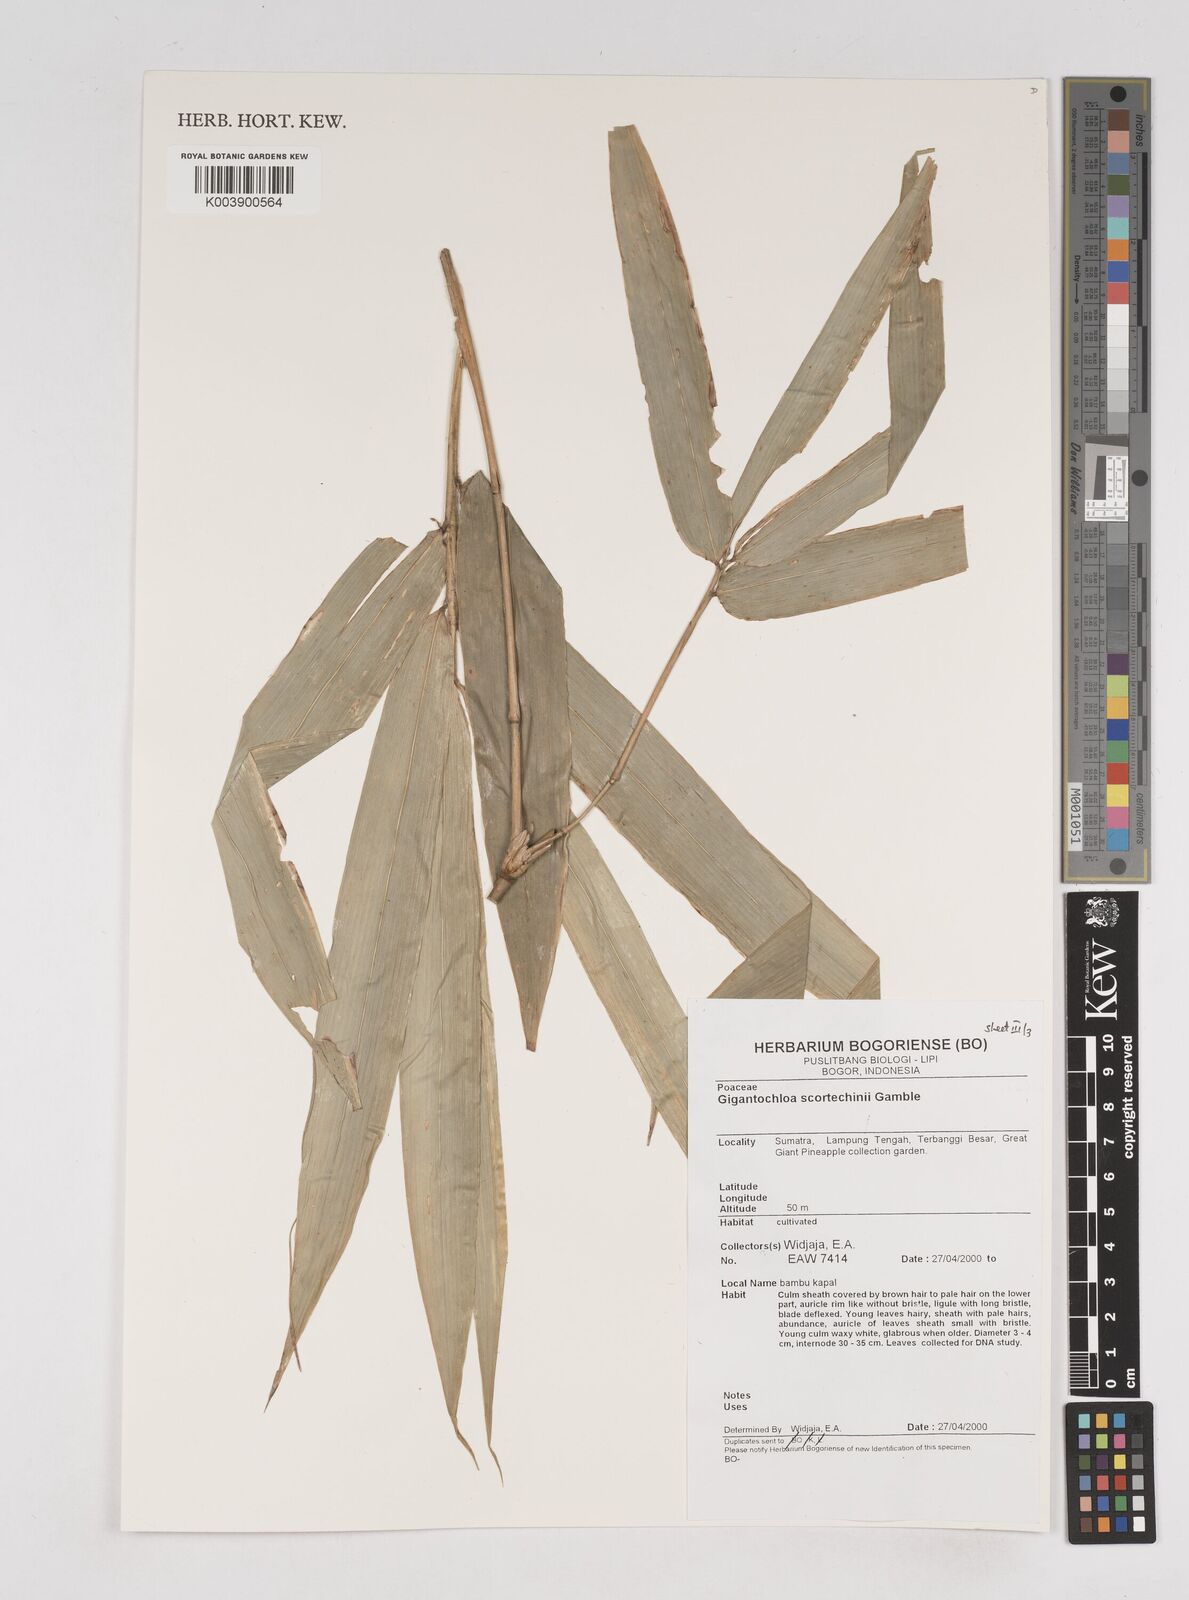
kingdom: Plantae
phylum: Tracheophyta
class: Liliopsida
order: Poales
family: Poaceae
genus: Gigantochloa
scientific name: Gigantochloa scortechinii
